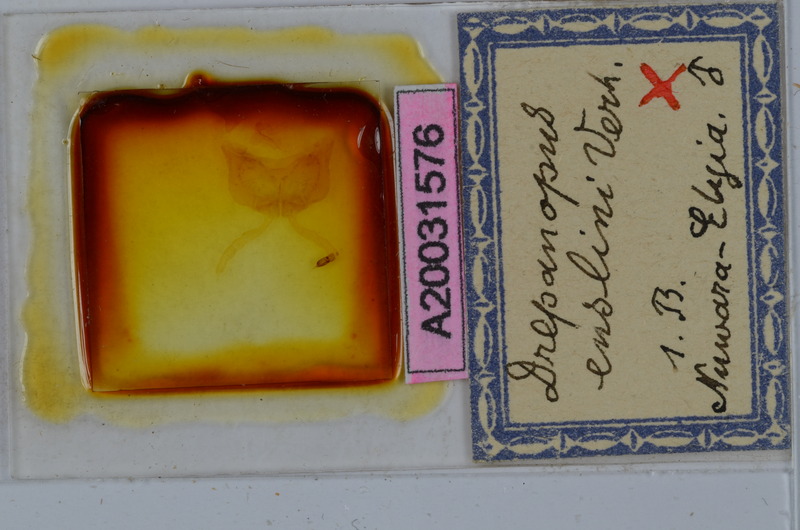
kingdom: Animalia
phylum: Arthropoda
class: Diplopoda
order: Spirostreptida
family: Harpagophoridae
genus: Ktenostreptus
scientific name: Ktenostreptus centrurus
